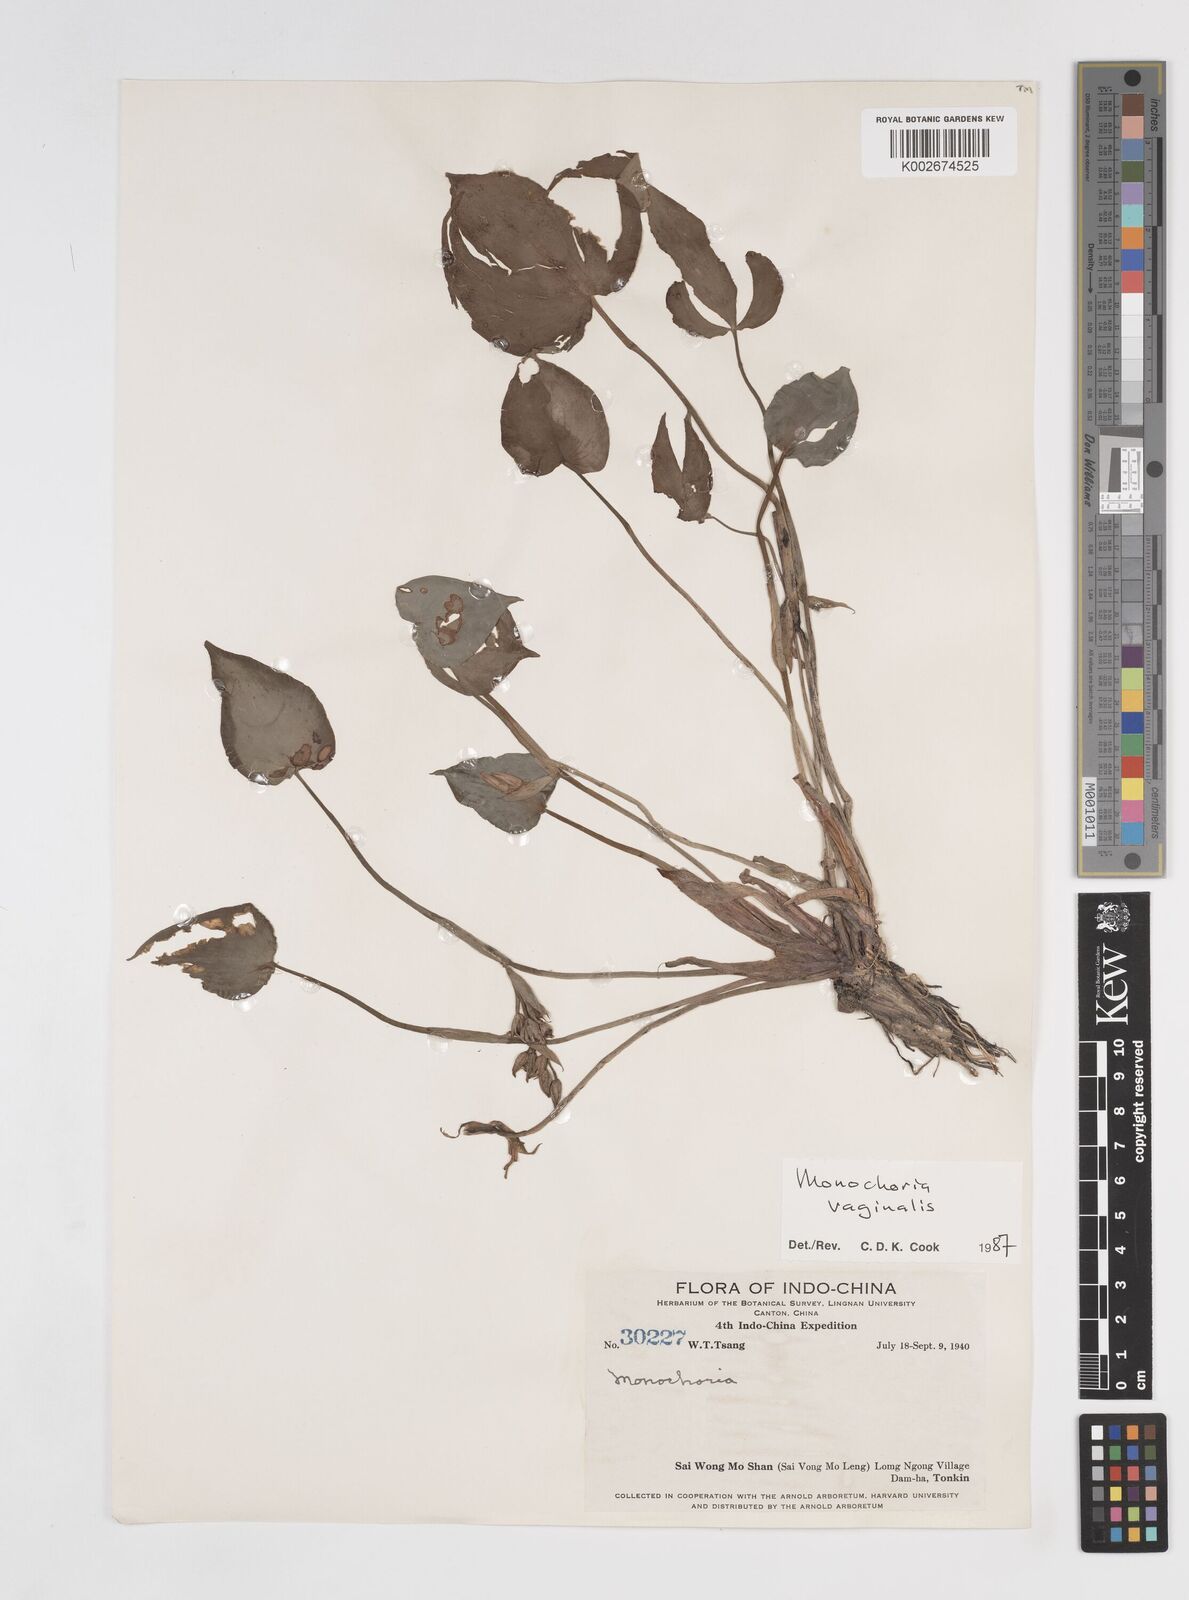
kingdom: Plantae
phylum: Tracheophyta
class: Liliopsida
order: Commelinales
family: Pontederiaceae
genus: Pontederia
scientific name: Pontederia vaginalis
